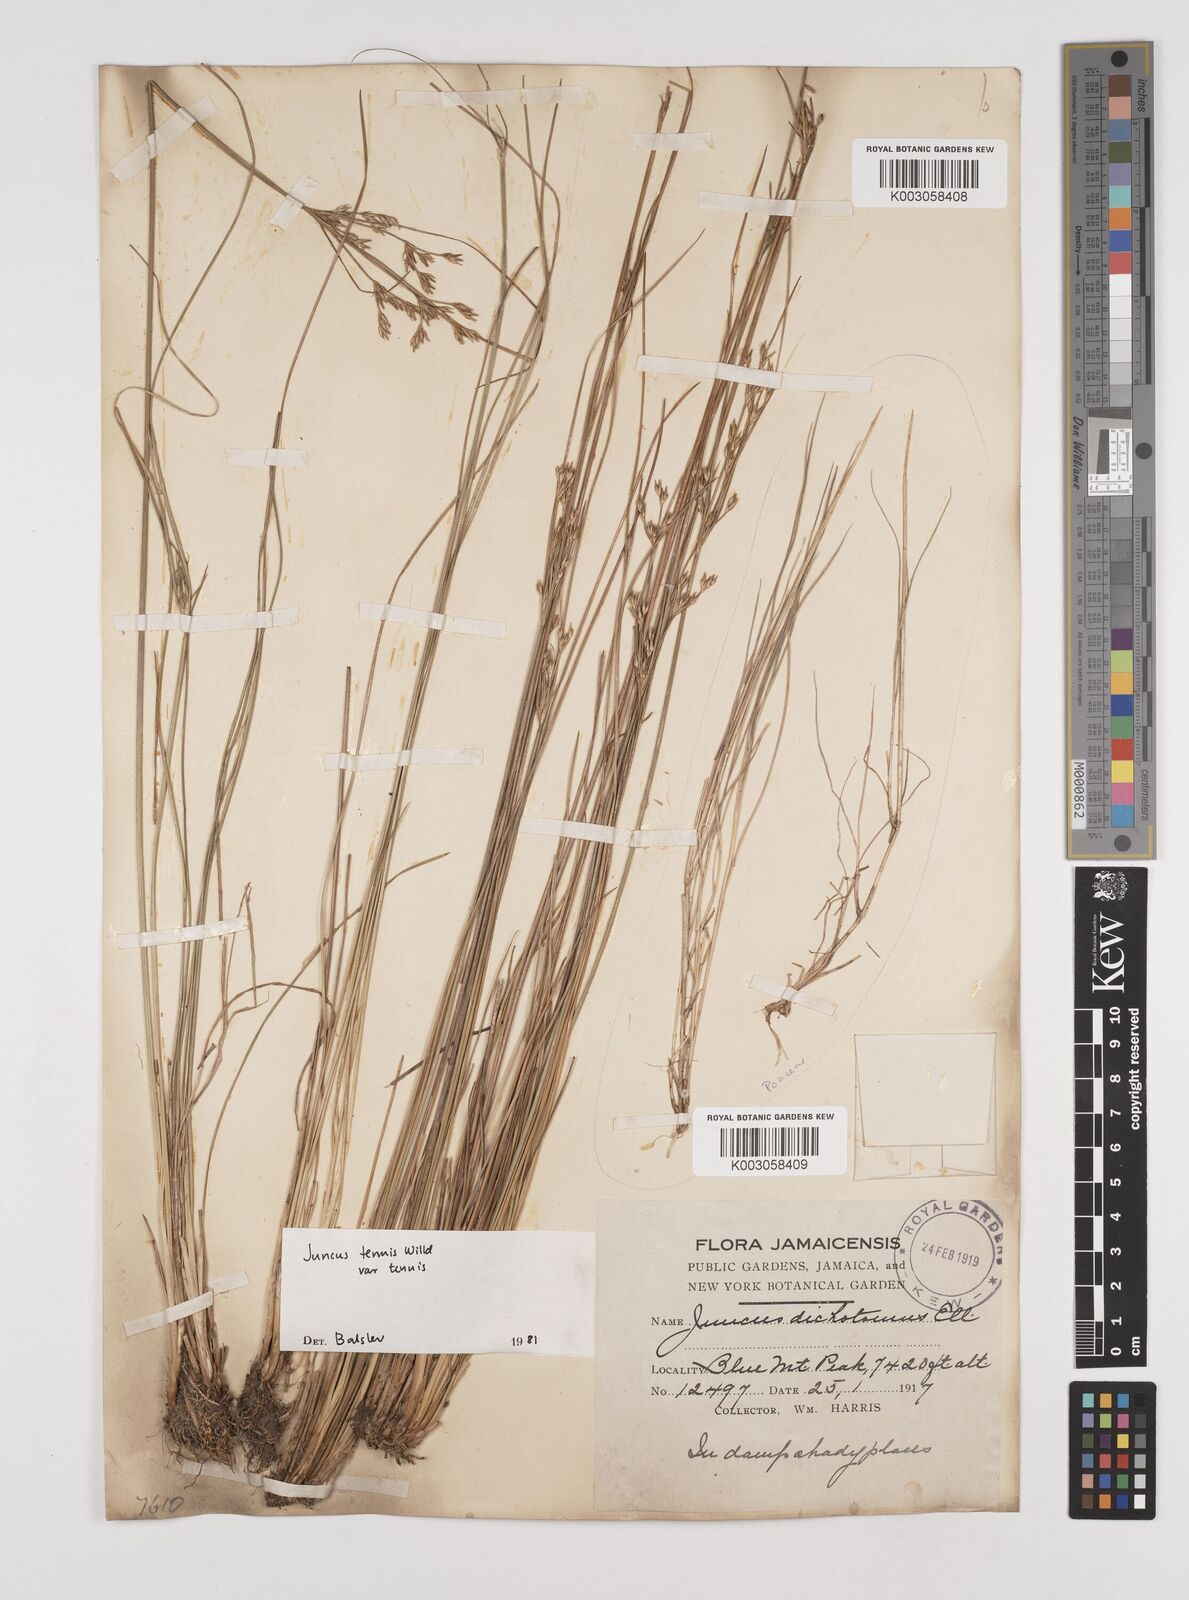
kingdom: Plantae
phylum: Tracheophyta
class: Liliopsida
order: Poales
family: Juncaceae
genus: Juncus
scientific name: Juncus tenuis
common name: Slender rush
